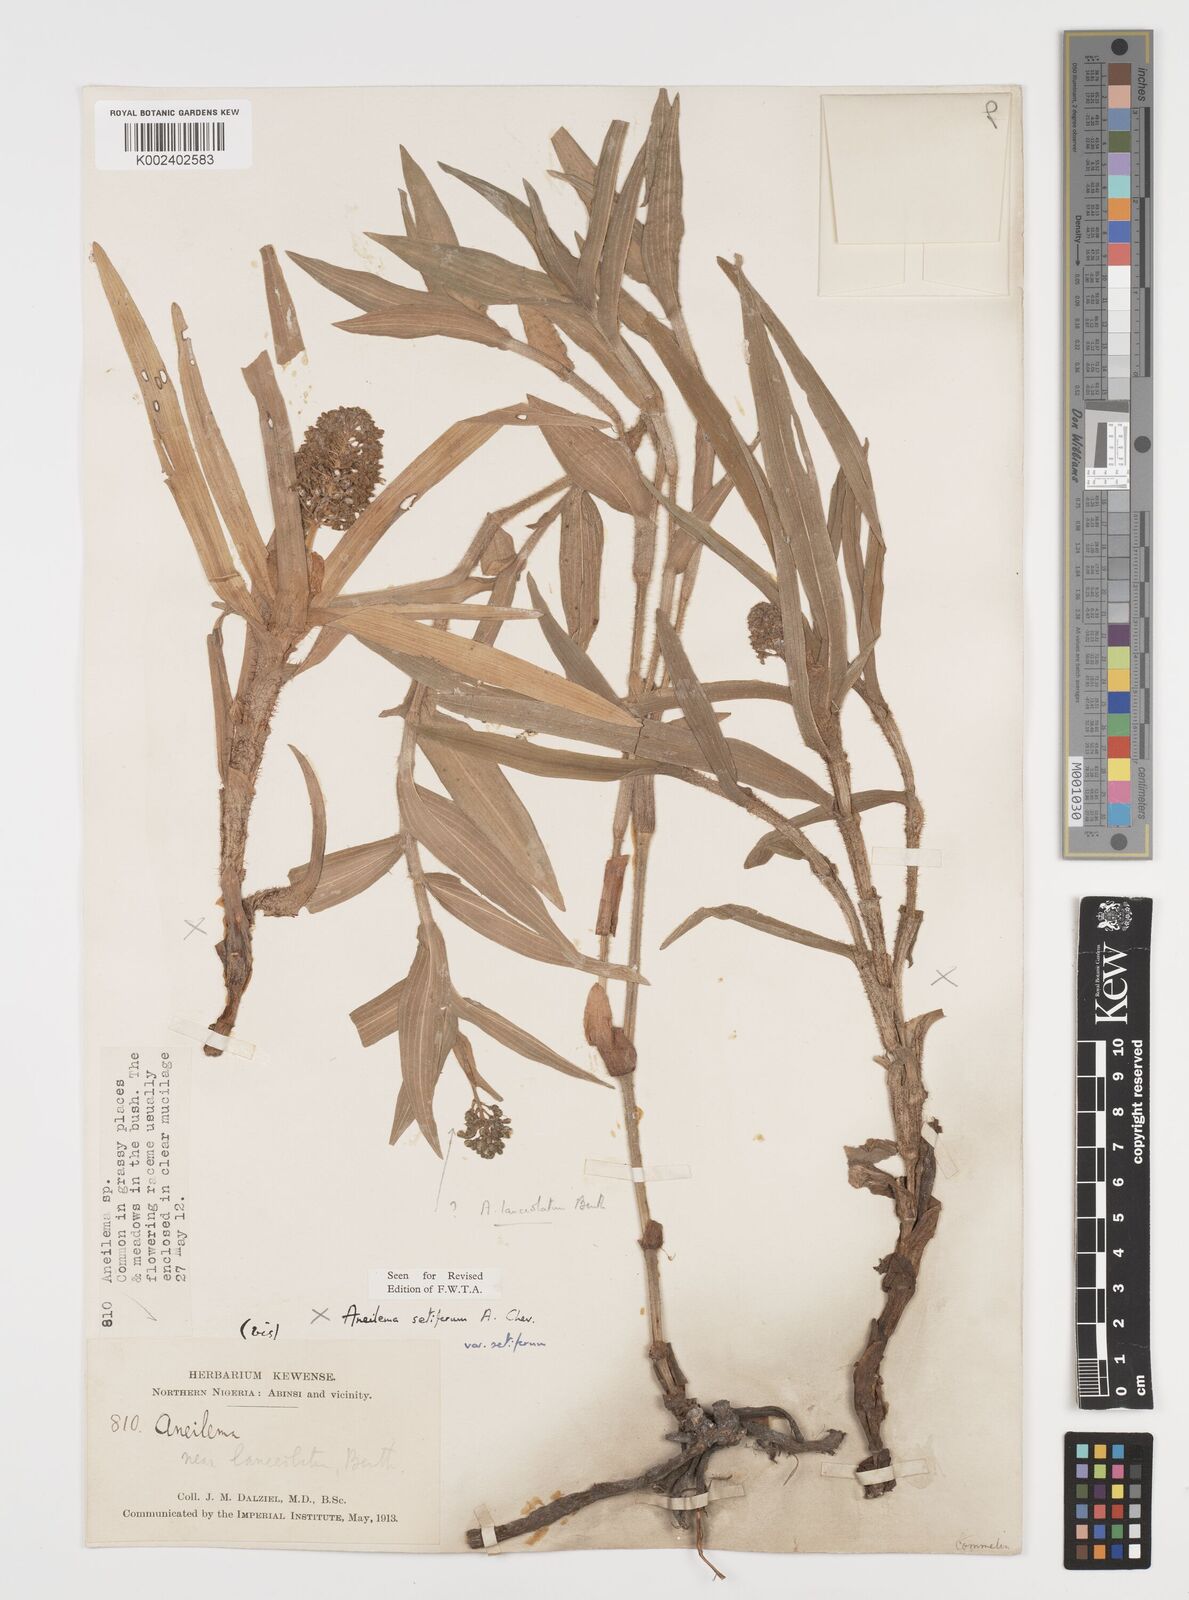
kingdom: Plantae
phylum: Tracheophyta
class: Liliopsida
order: Commelinales
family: Commelinaceae
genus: Aneilema
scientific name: Aneilema setiferum
